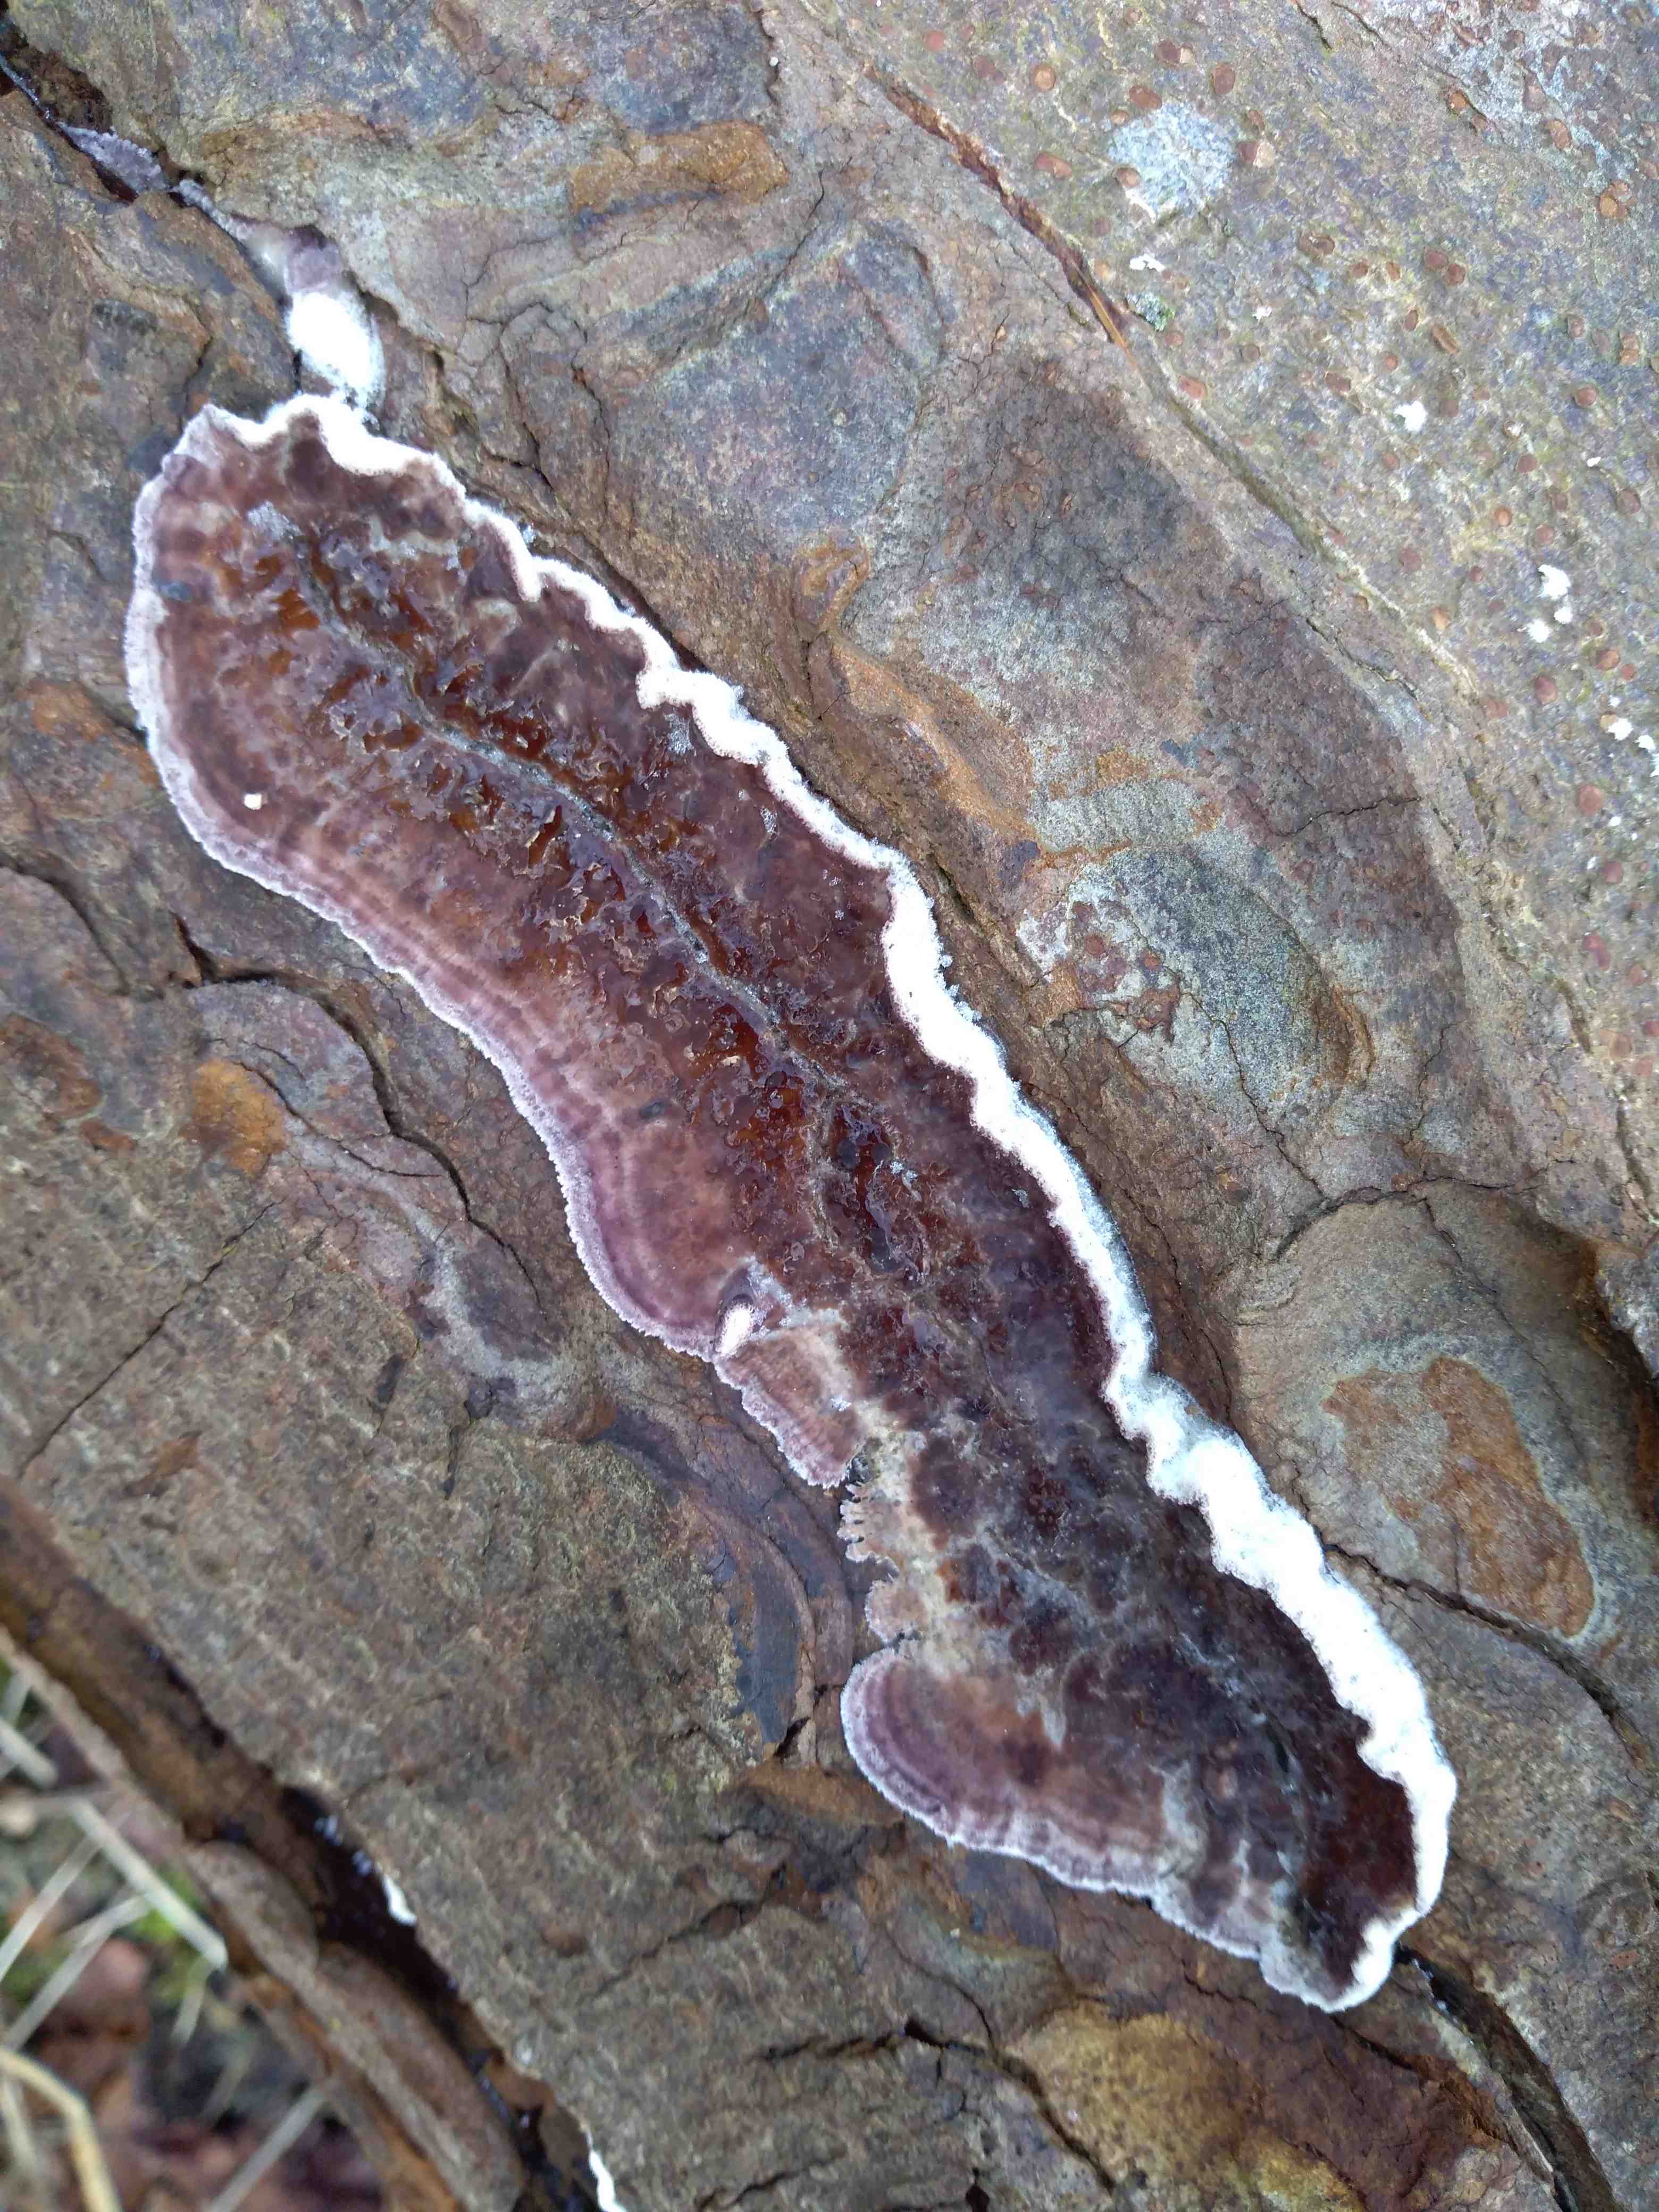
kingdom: Fungi
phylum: Basidiomycota
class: Agaricomycetes
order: Agaricales
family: Cyphellaceae
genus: Chondrostereum
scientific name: Chondrostereum purpureum
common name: purpurlædersvamp
